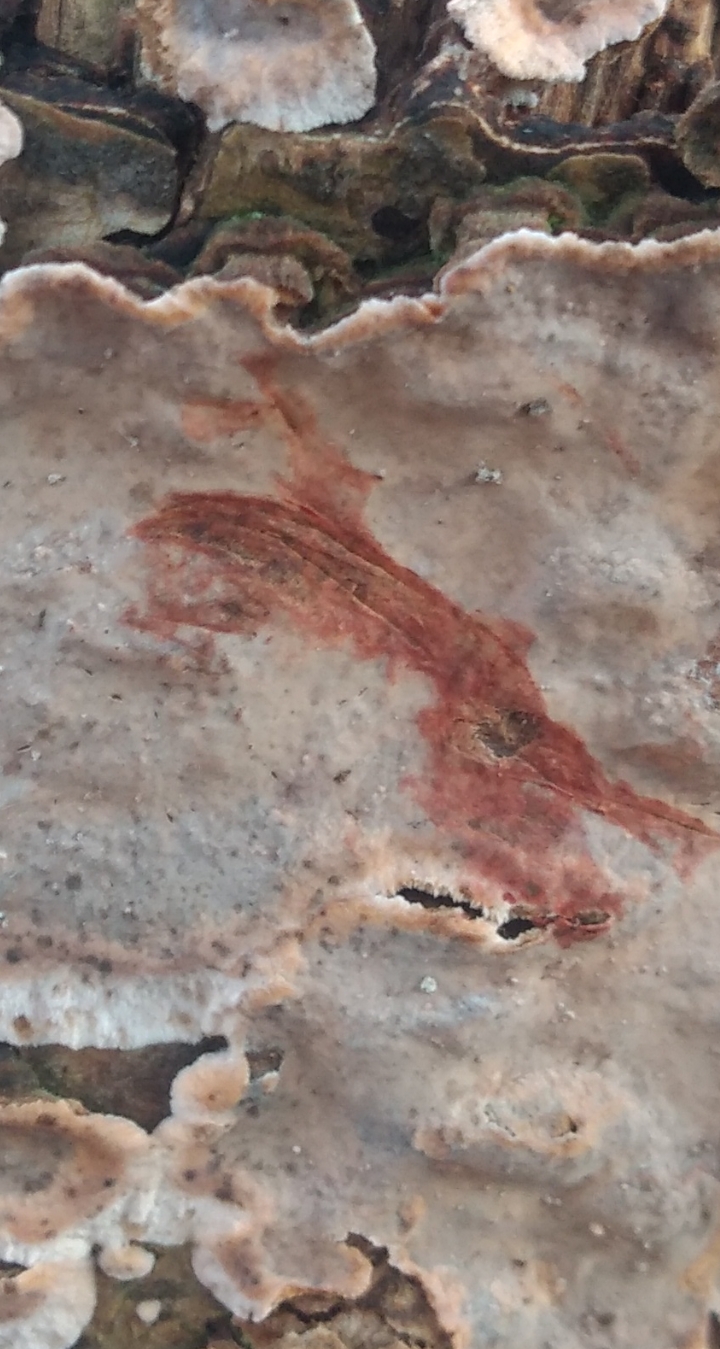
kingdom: Fungi
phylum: Basidiomycota
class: Agaricomycetes
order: Russulales
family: Stereaceae
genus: Stereum
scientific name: Stereum rugosum
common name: rynket lædersvamp
